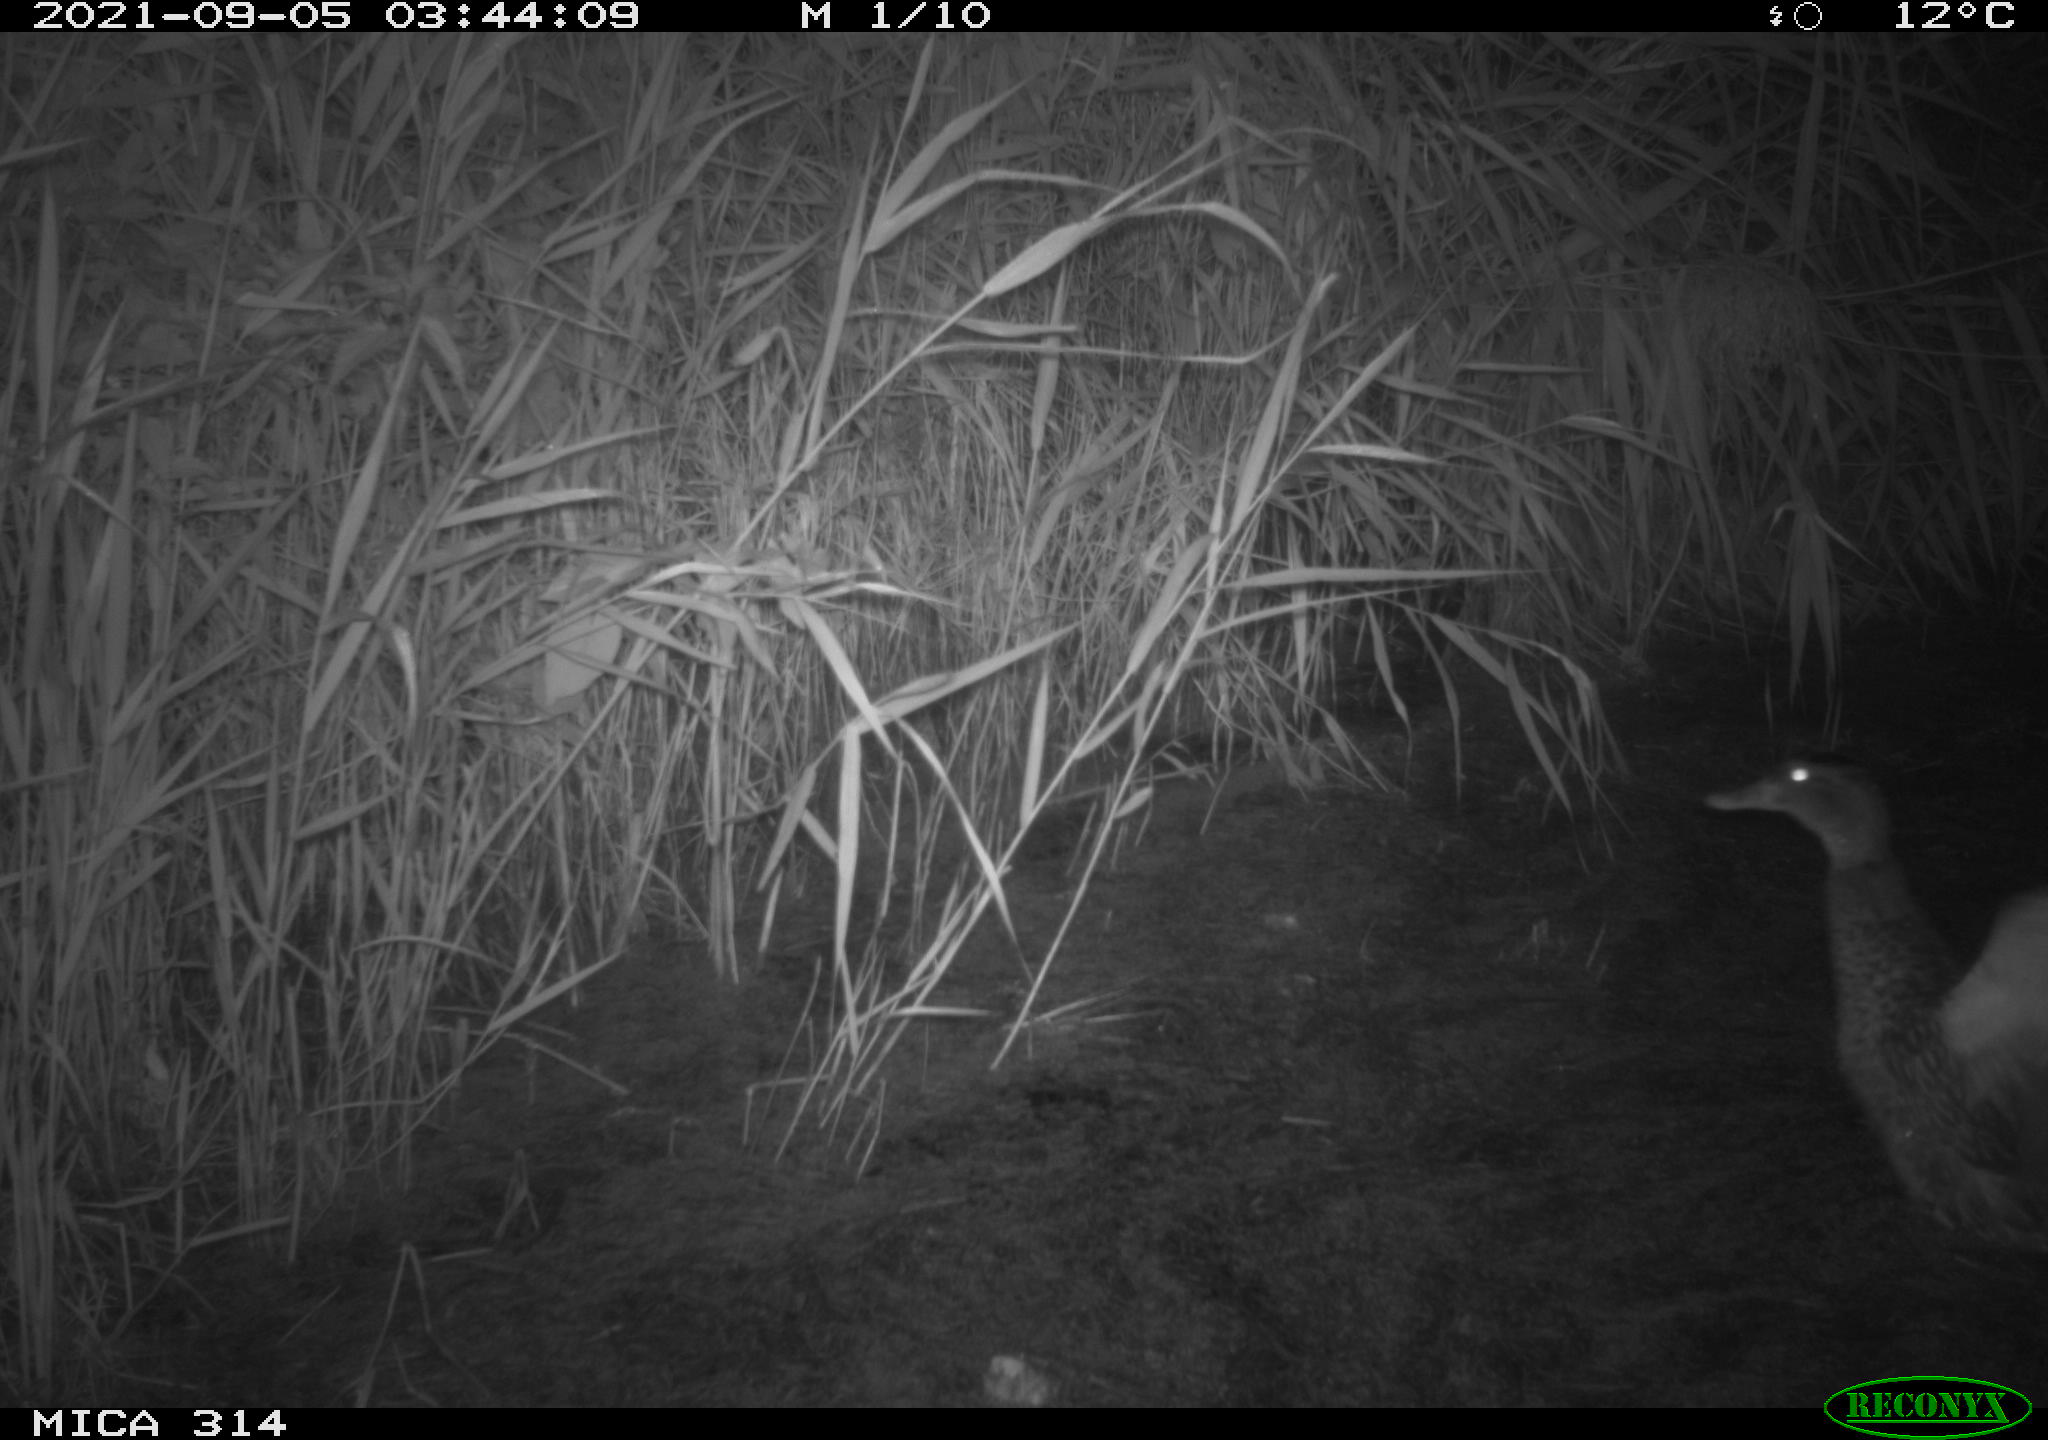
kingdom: Animalia
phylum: Chordata
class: Aves
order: Anseriformes
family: Anatidae
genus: Anas
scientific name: Anas platyrhynchos
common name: Mallard
